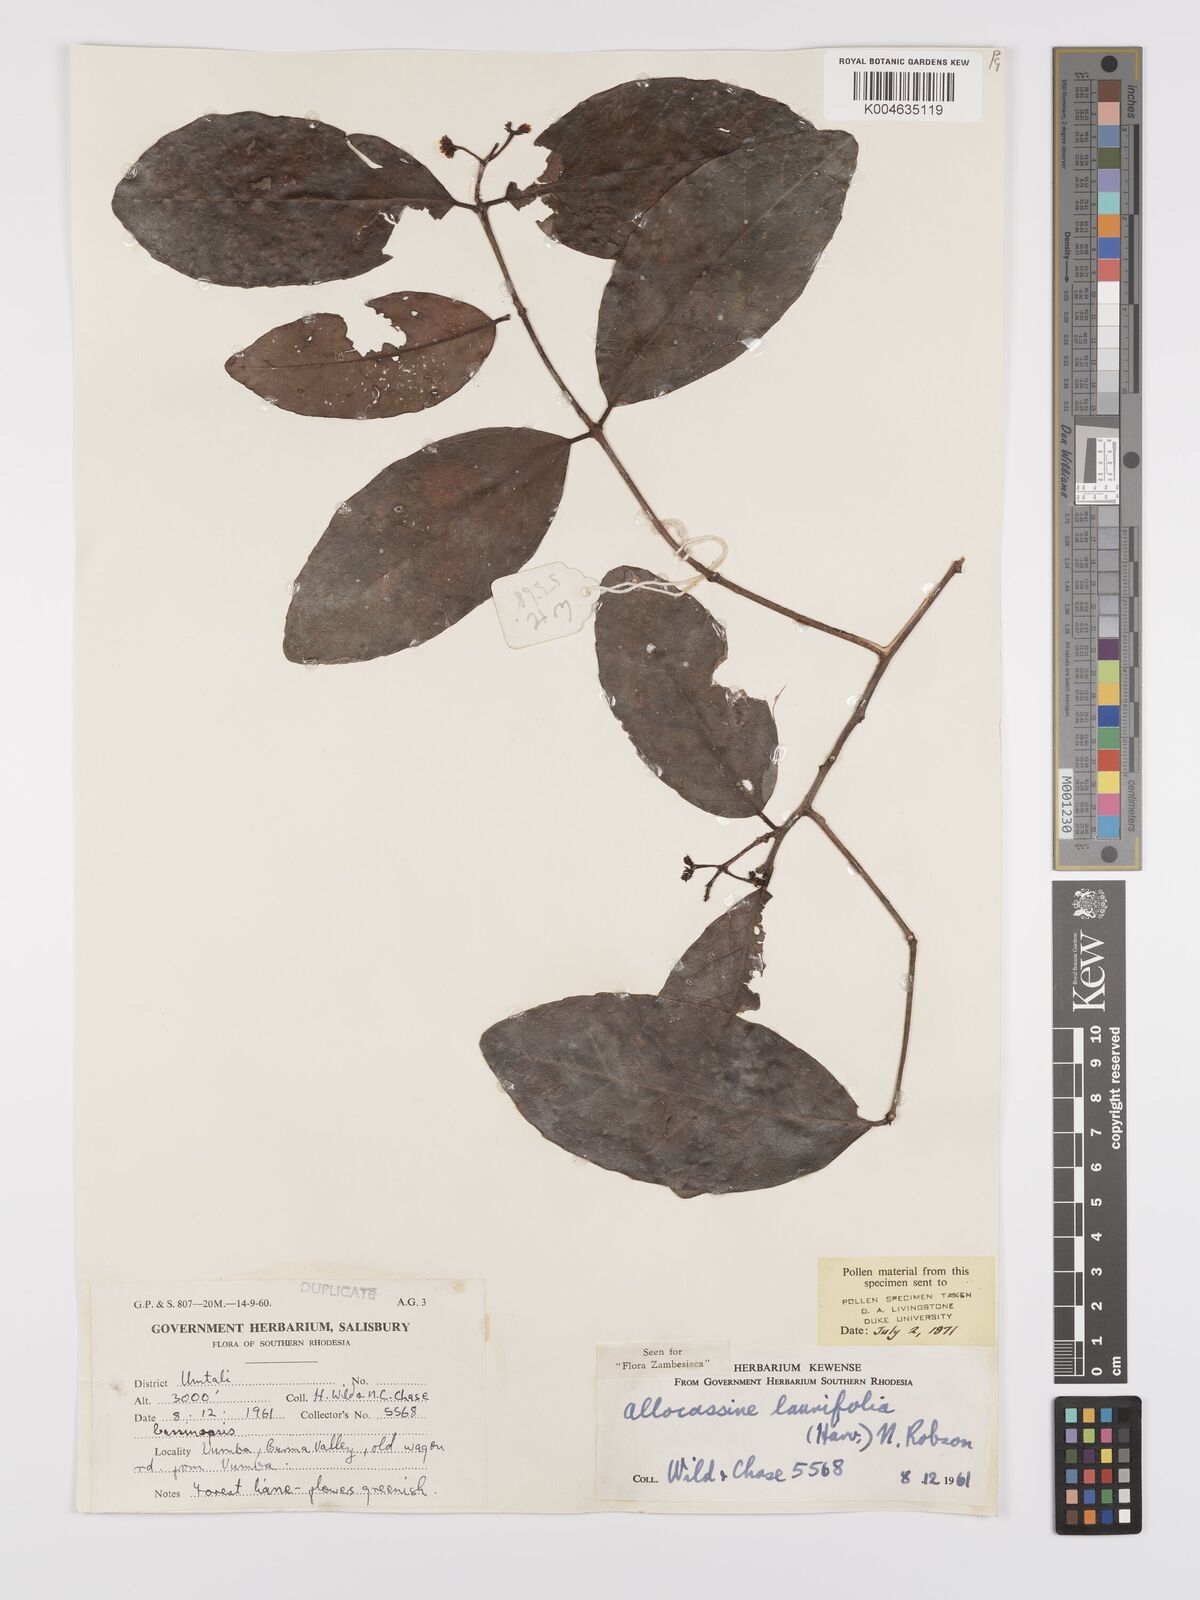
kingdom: Plantae
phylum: Tracheophyta
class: Magnoliopsida
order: Celastrales
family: Celastraceae
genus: Allocassine
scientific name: Allocassine laurifolia
